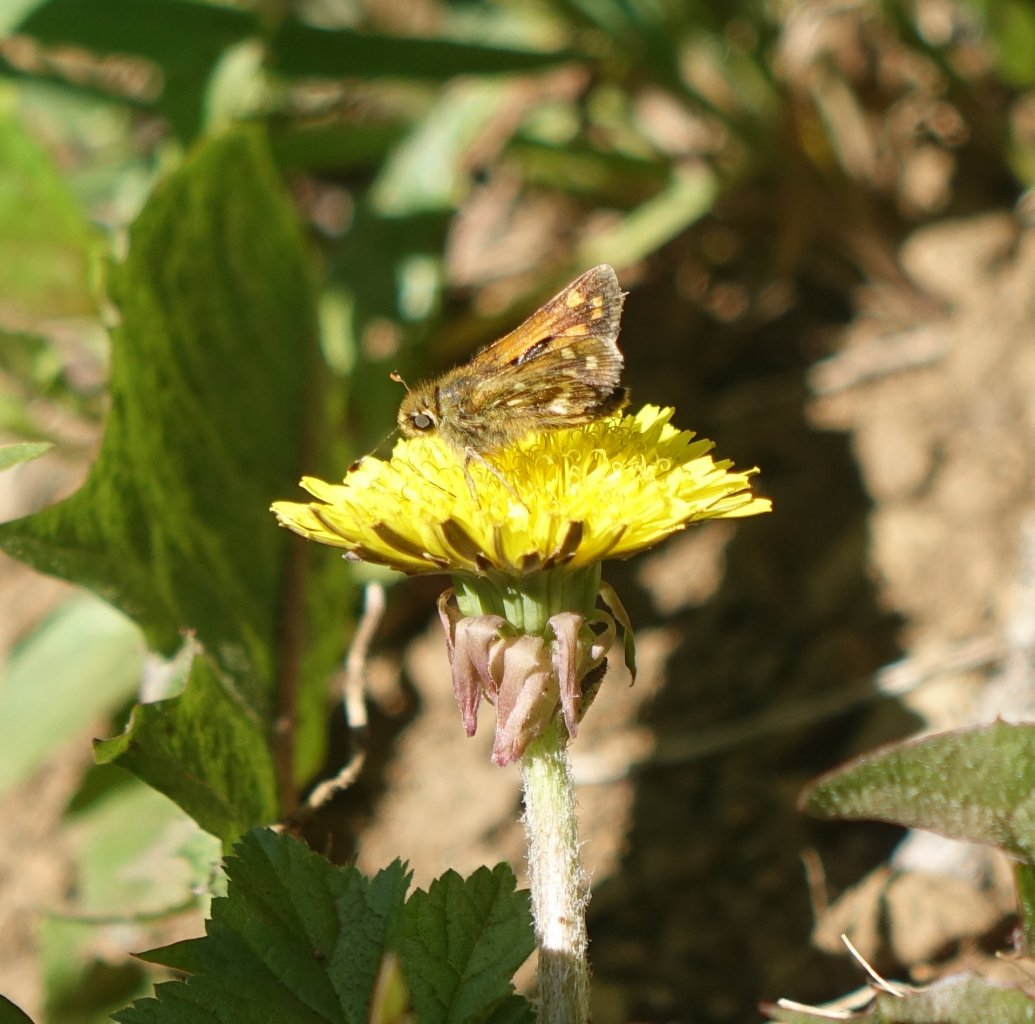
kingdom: Animalia
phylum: Arthropoda
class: Insecta
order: Lepidoptera
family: Hesperiidae
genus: Ochlodes
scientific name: Ochlodes sylvanoides
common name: Woodland Skipper
